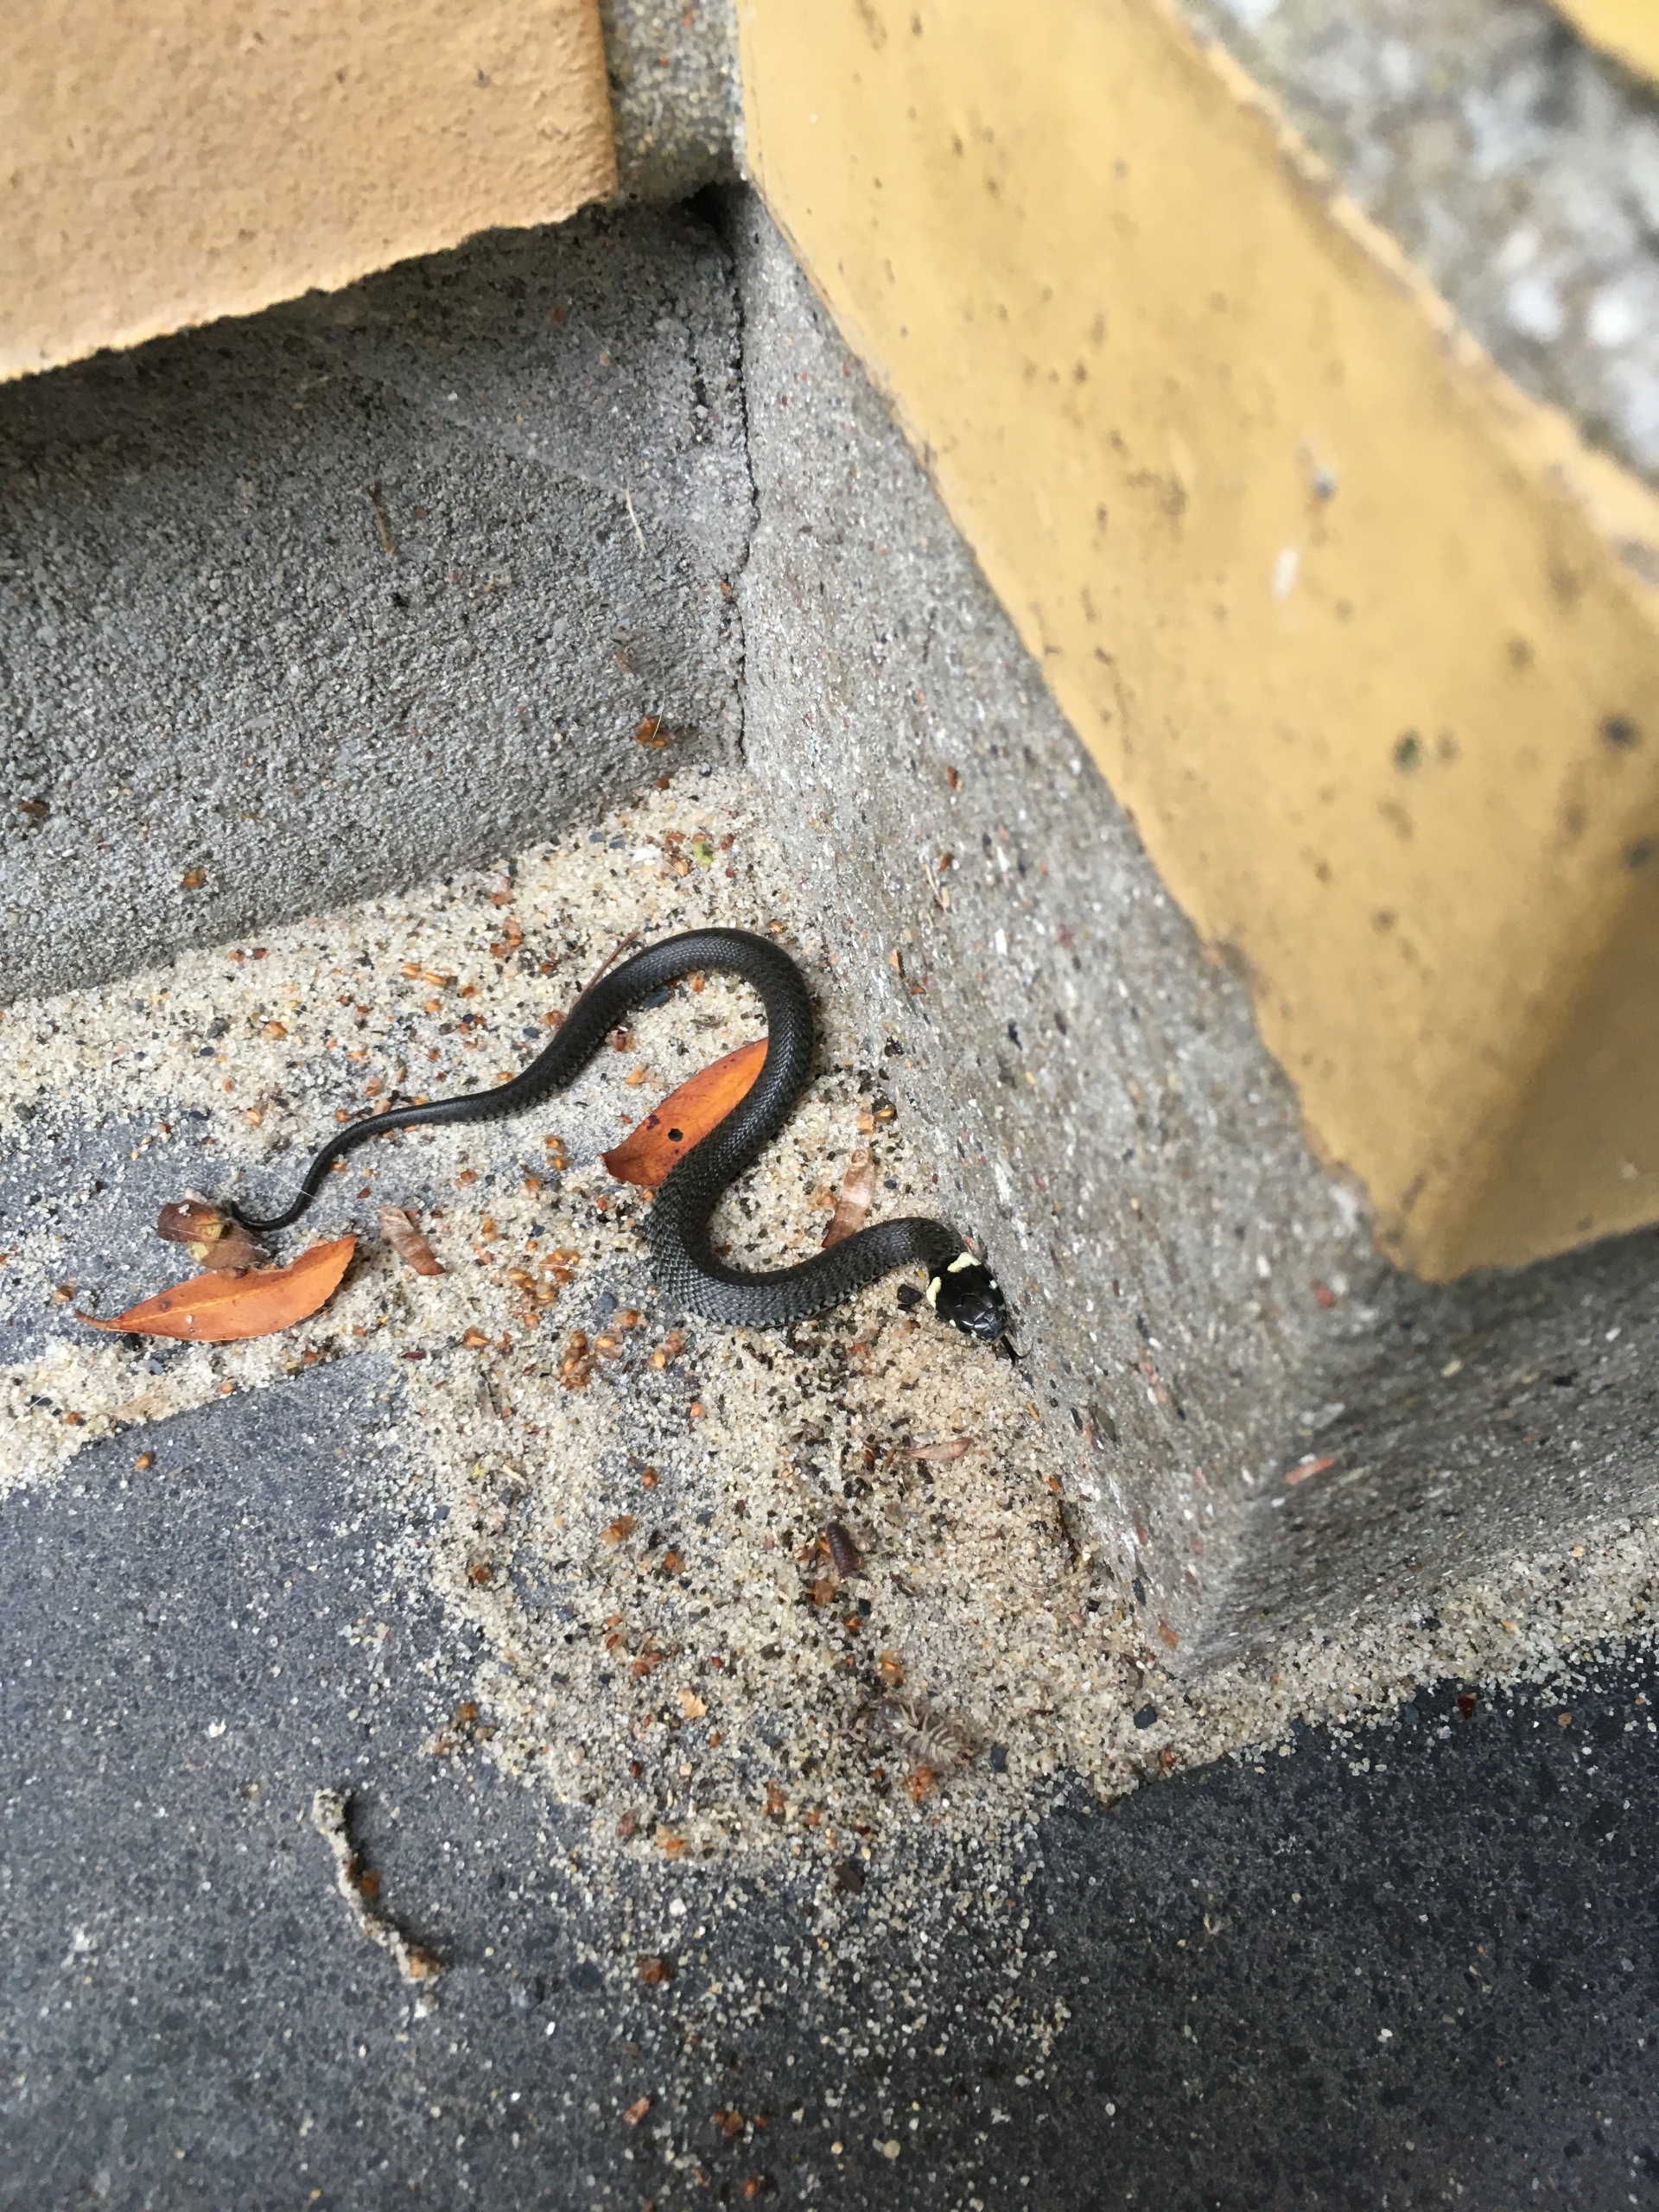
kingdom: Animalia
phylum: Chordata
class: Squamata
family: Colubridae
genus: Natrix
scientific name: Natrix natrix
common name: Snog
